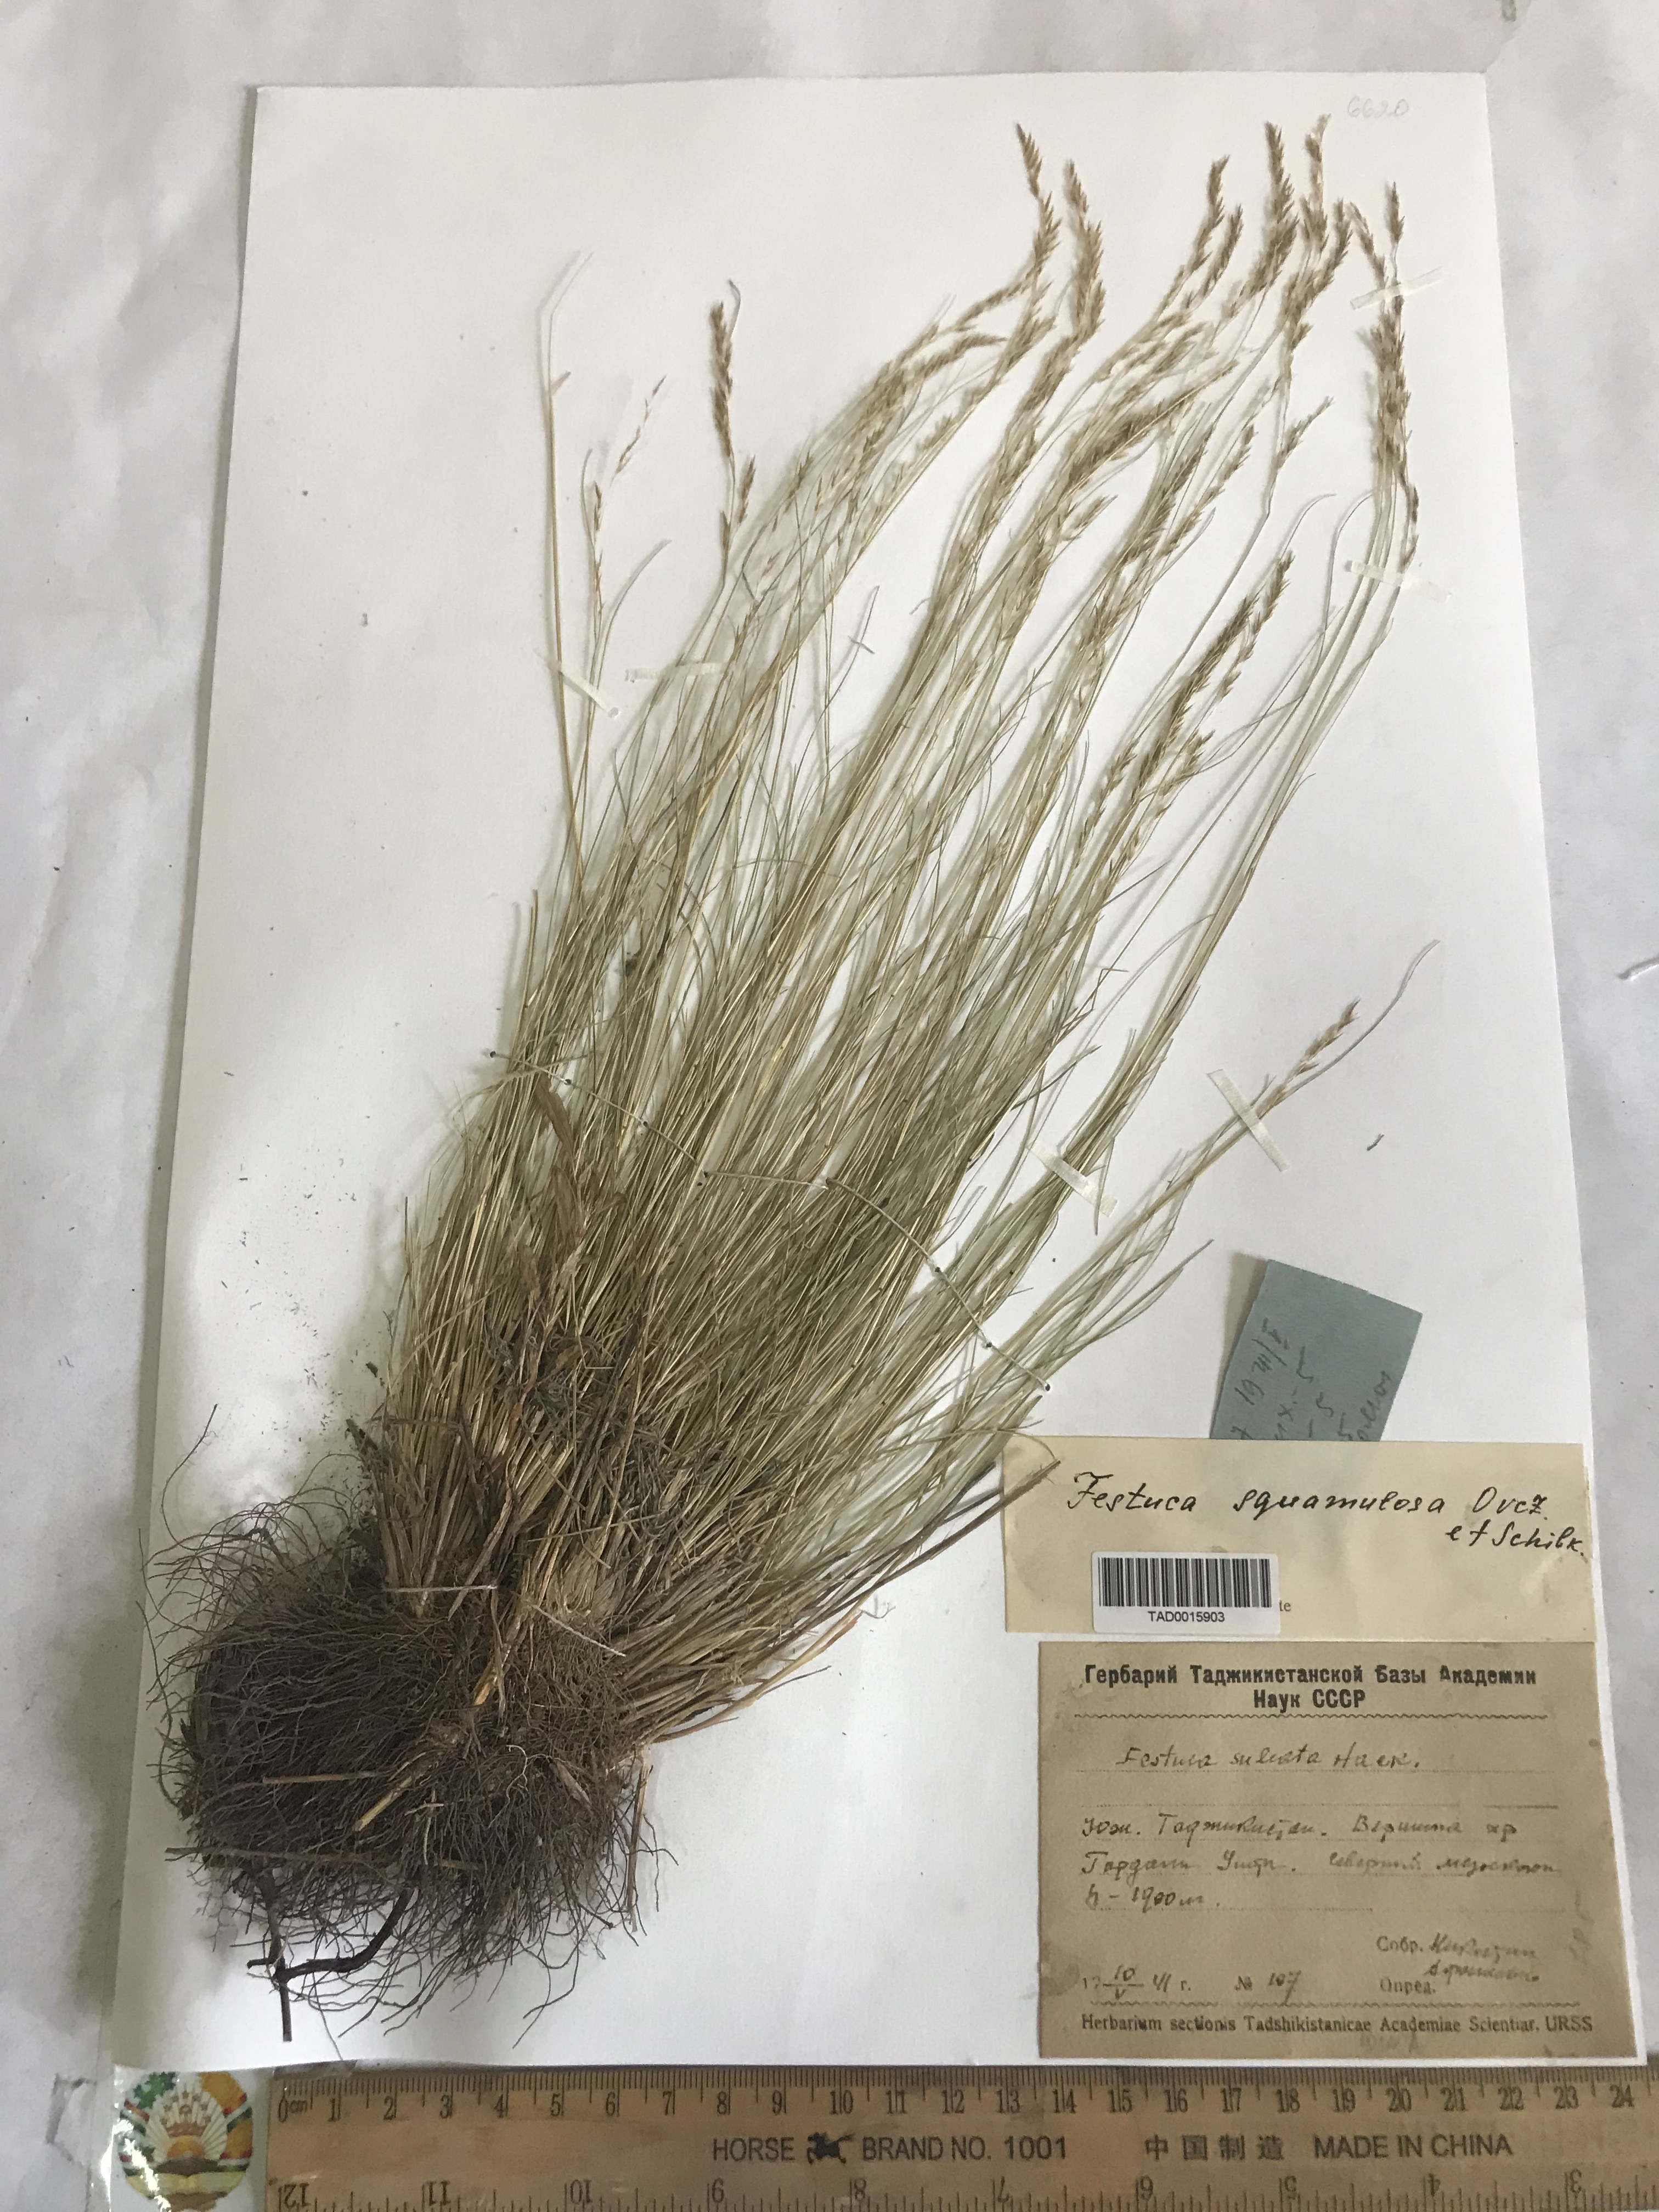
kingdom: Plantae
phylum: Tracheophyta
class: Liliopsida
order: Poales
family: Poaceae
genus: Festuca
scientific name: Festuca valesiaca
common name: Volga fescue
